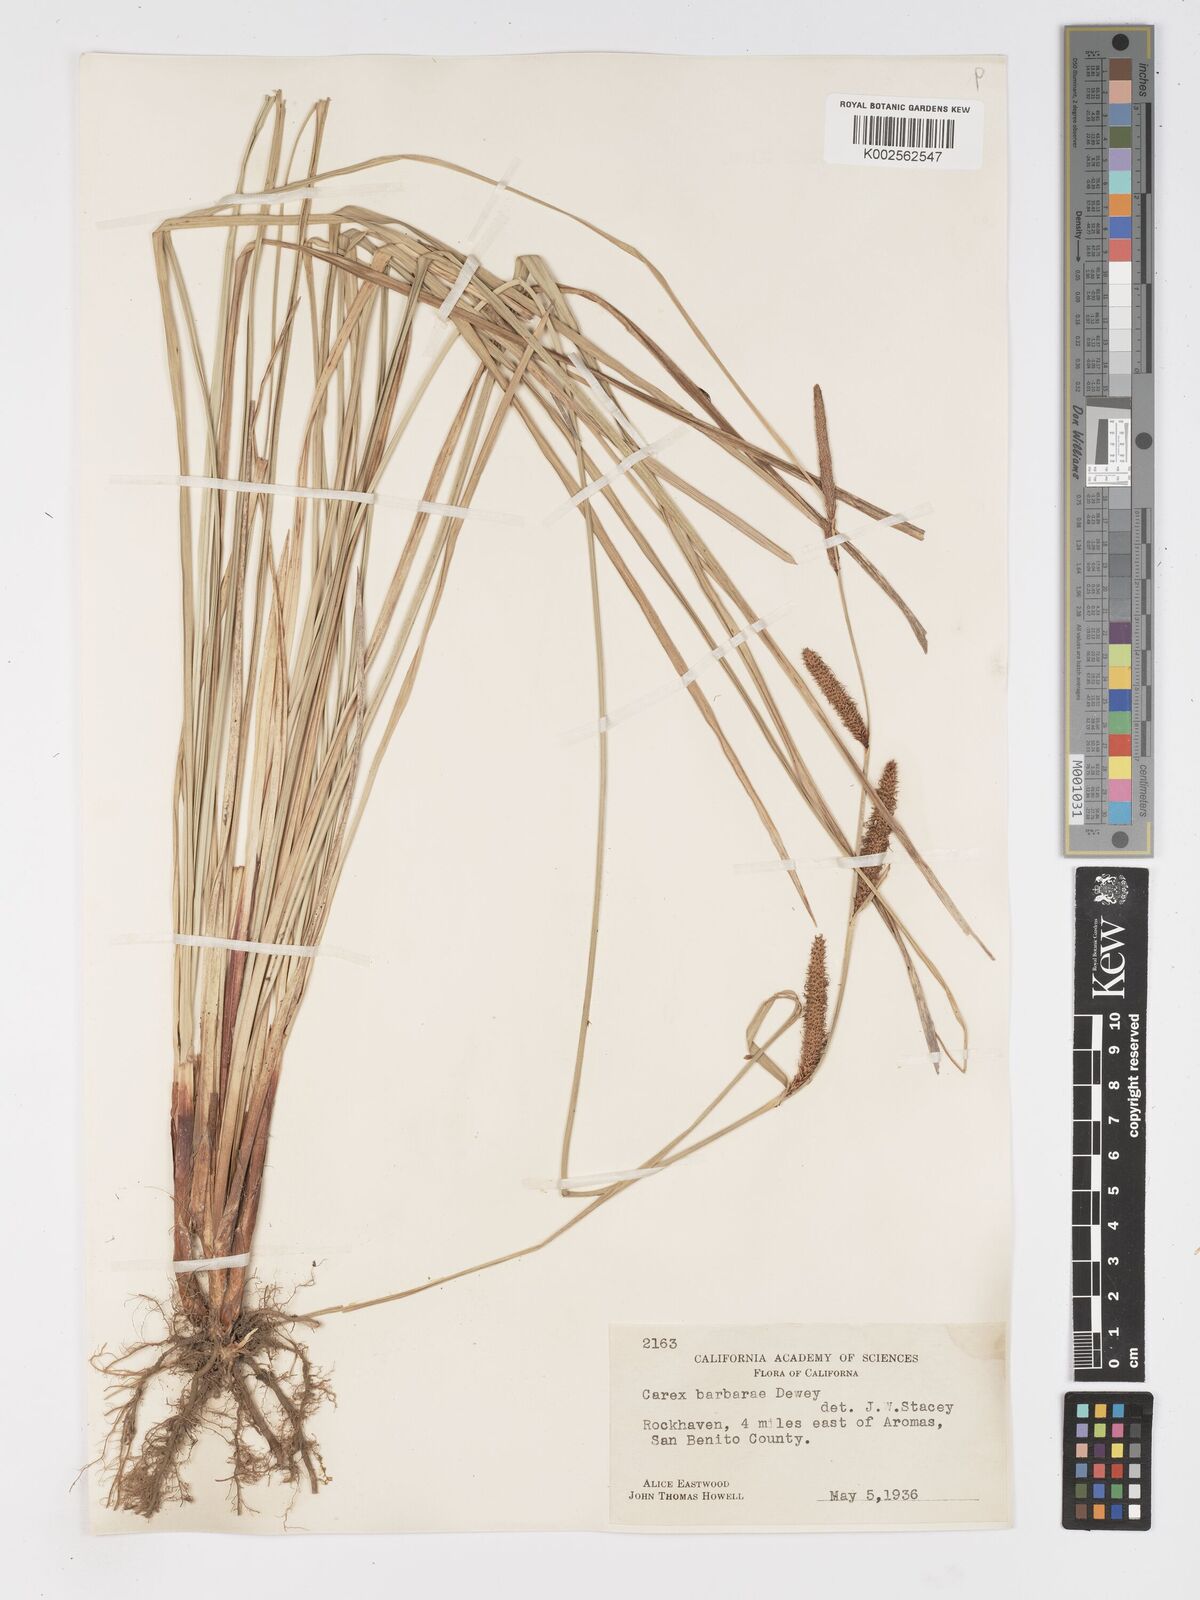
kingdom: Plantae
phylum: Tracheophyta
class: Liliopsida
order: Poales
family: Cyperaceae
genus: Carex
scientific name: Carex schottii
